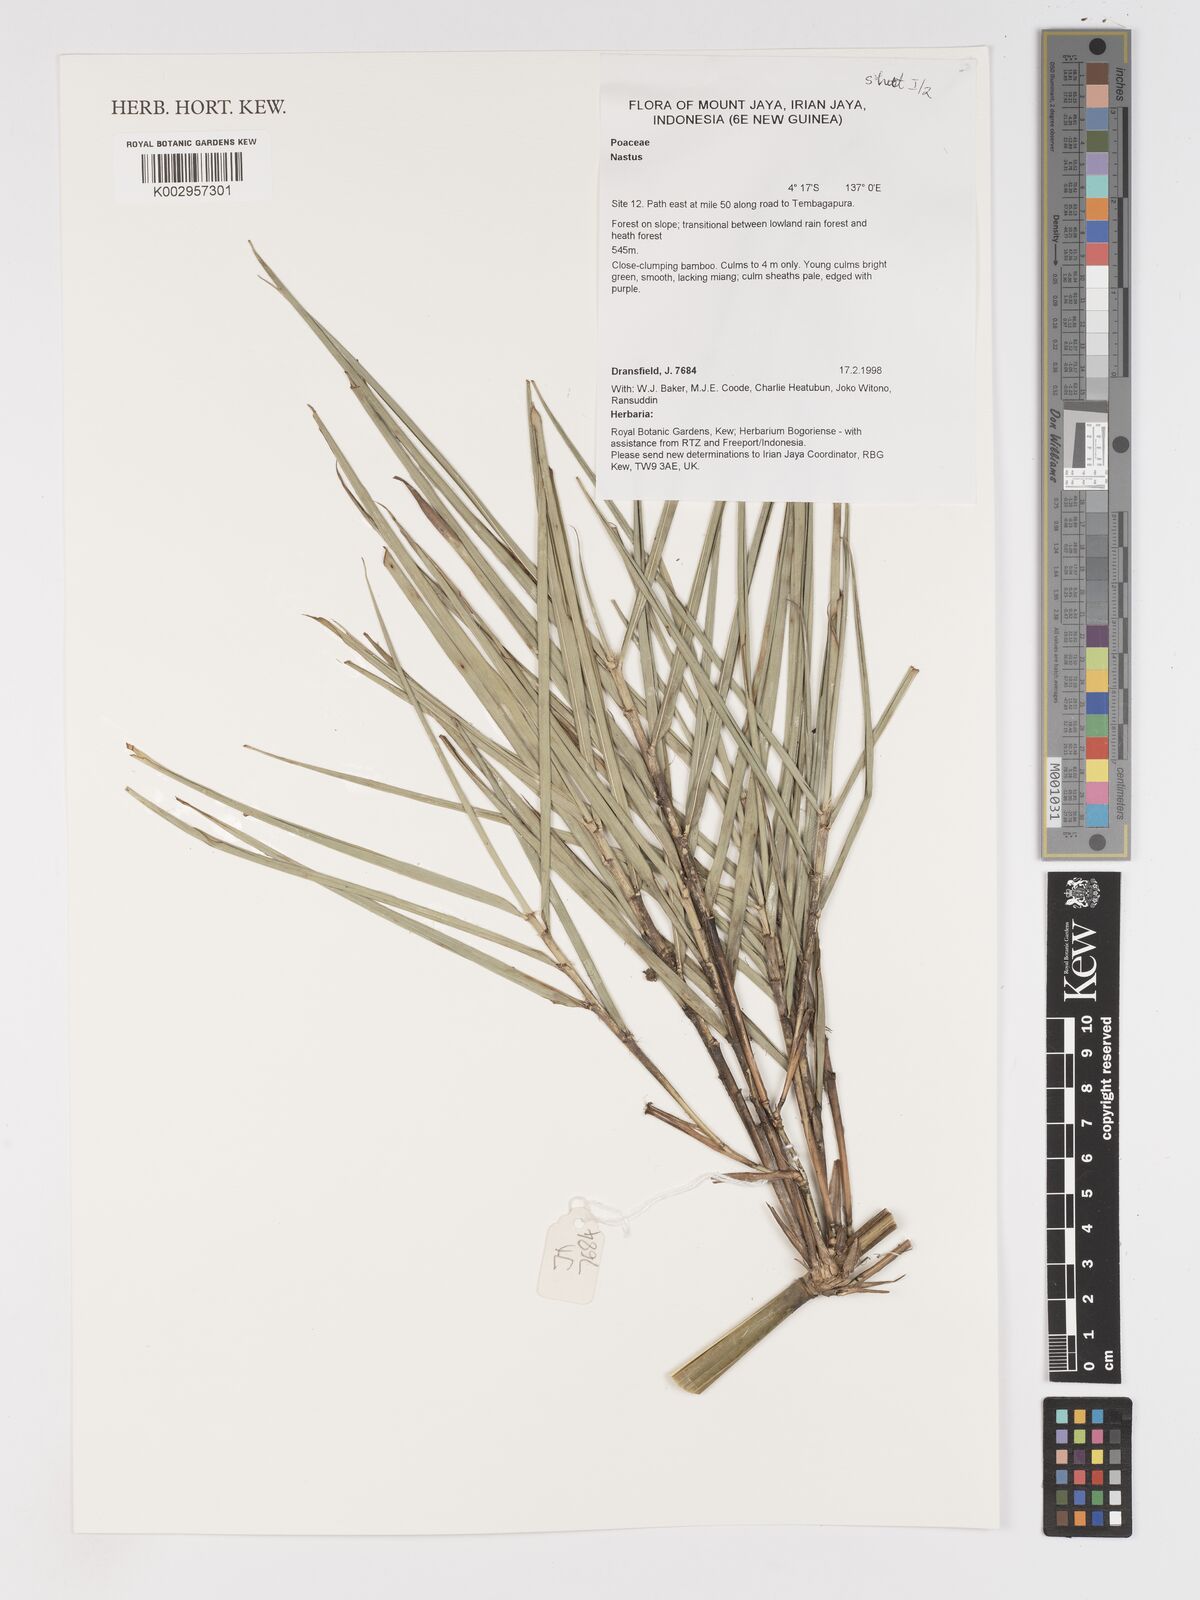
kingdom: Plantae
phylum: Tracheophyta
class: Liliopsida
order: Poales
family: Poaceae
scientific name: Poaceae
